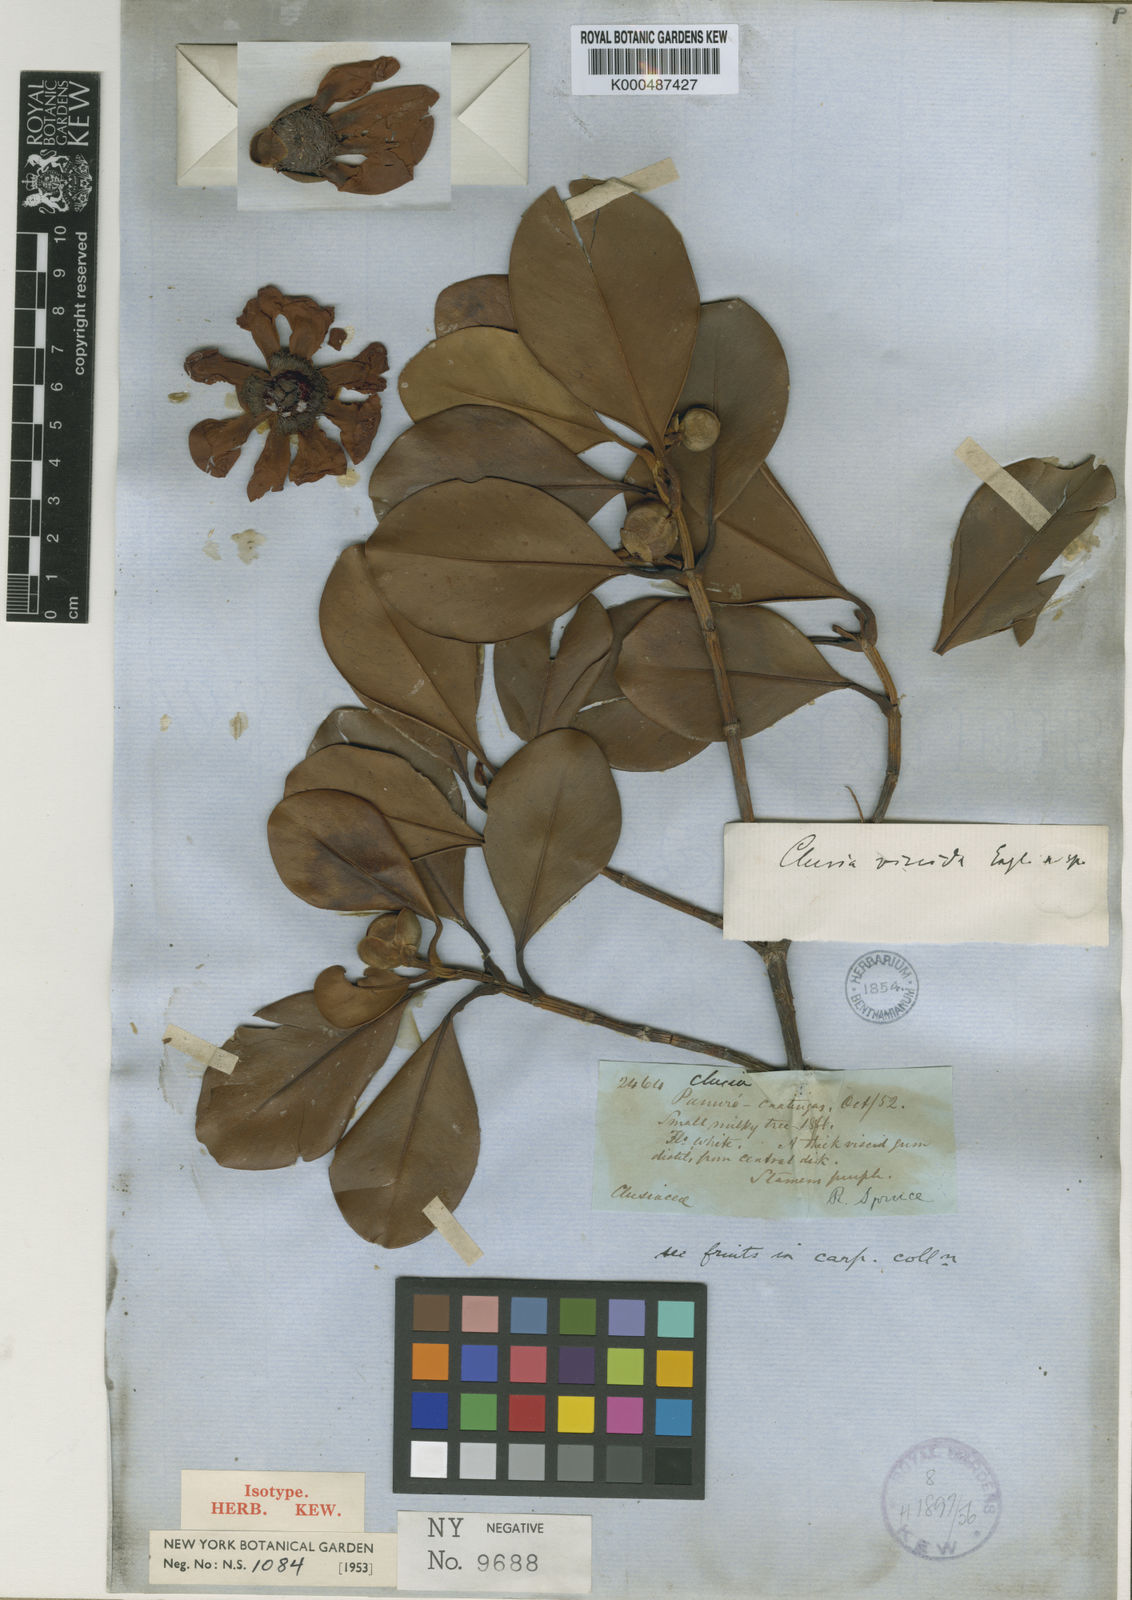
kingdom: Plantae
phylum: Tracheophyta
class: Magnoliopsida
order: Malpighiales
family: Clusiaceae
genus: Clusia
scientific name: Clusia viscida
